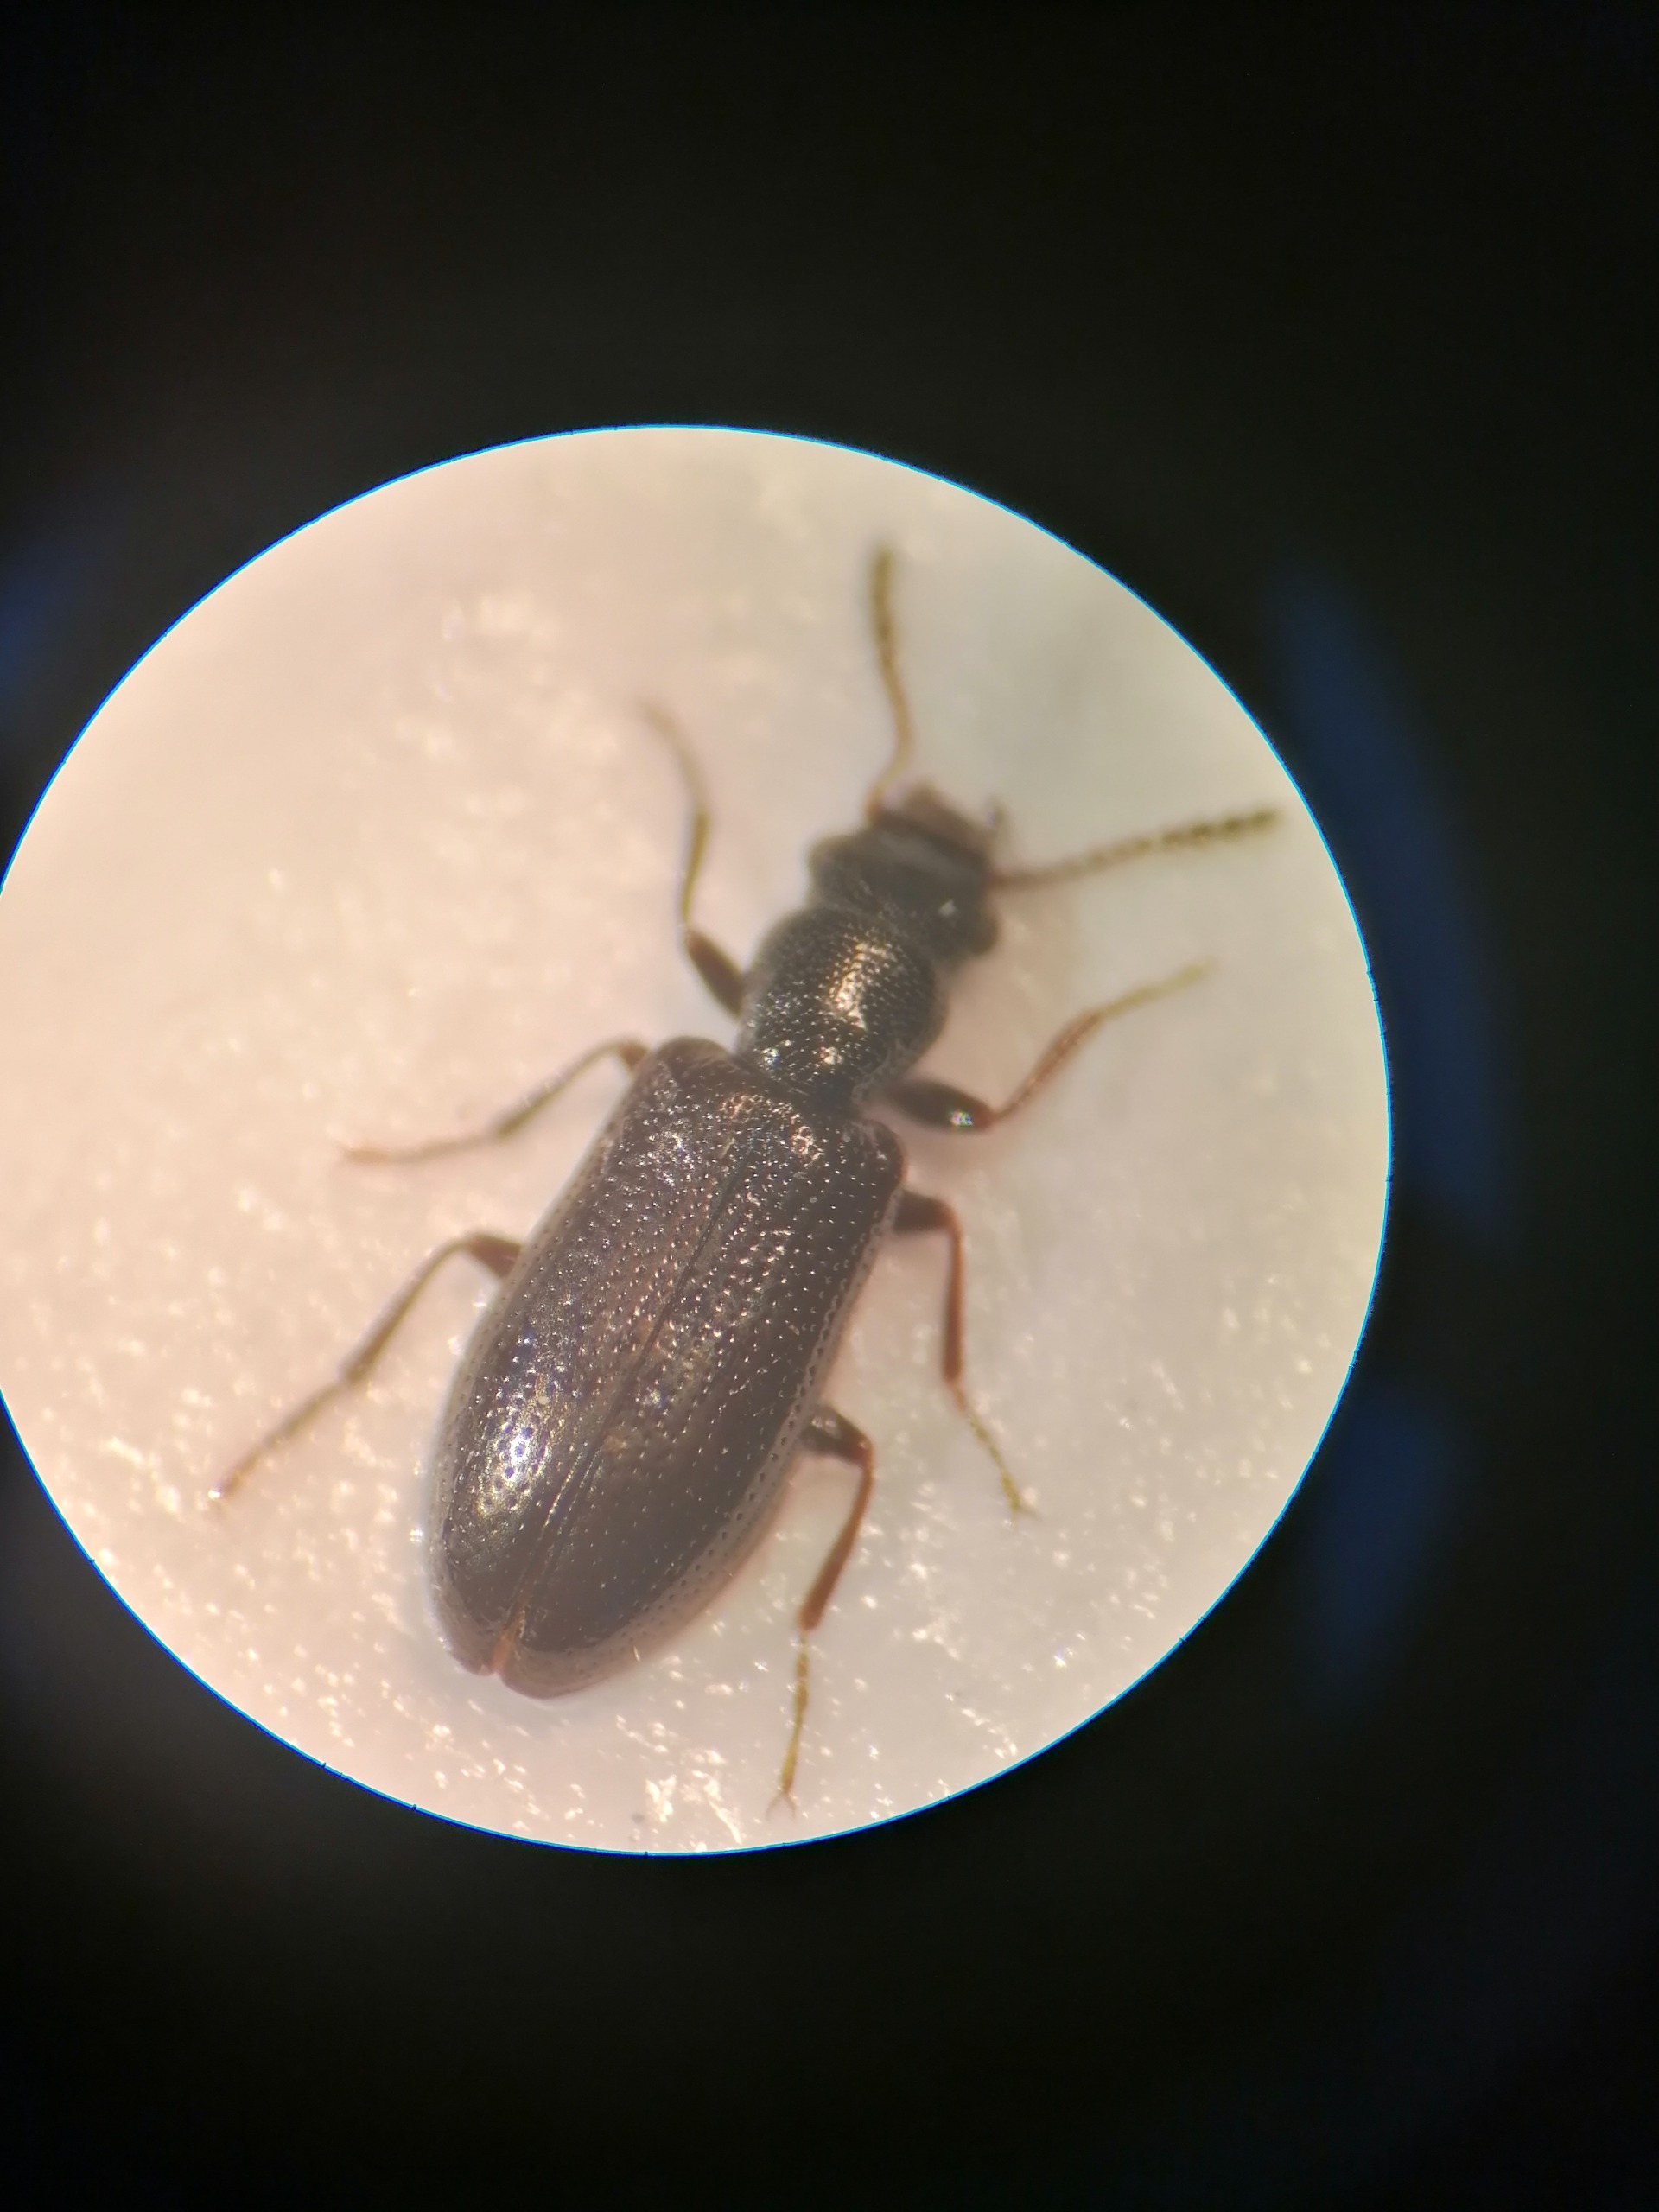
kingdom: Animalia
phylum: Arthropoda
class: Insecta
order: Coleoptera
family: Salpingidae
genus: Sphaeriestes
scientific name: Sphaeriestes reyi
